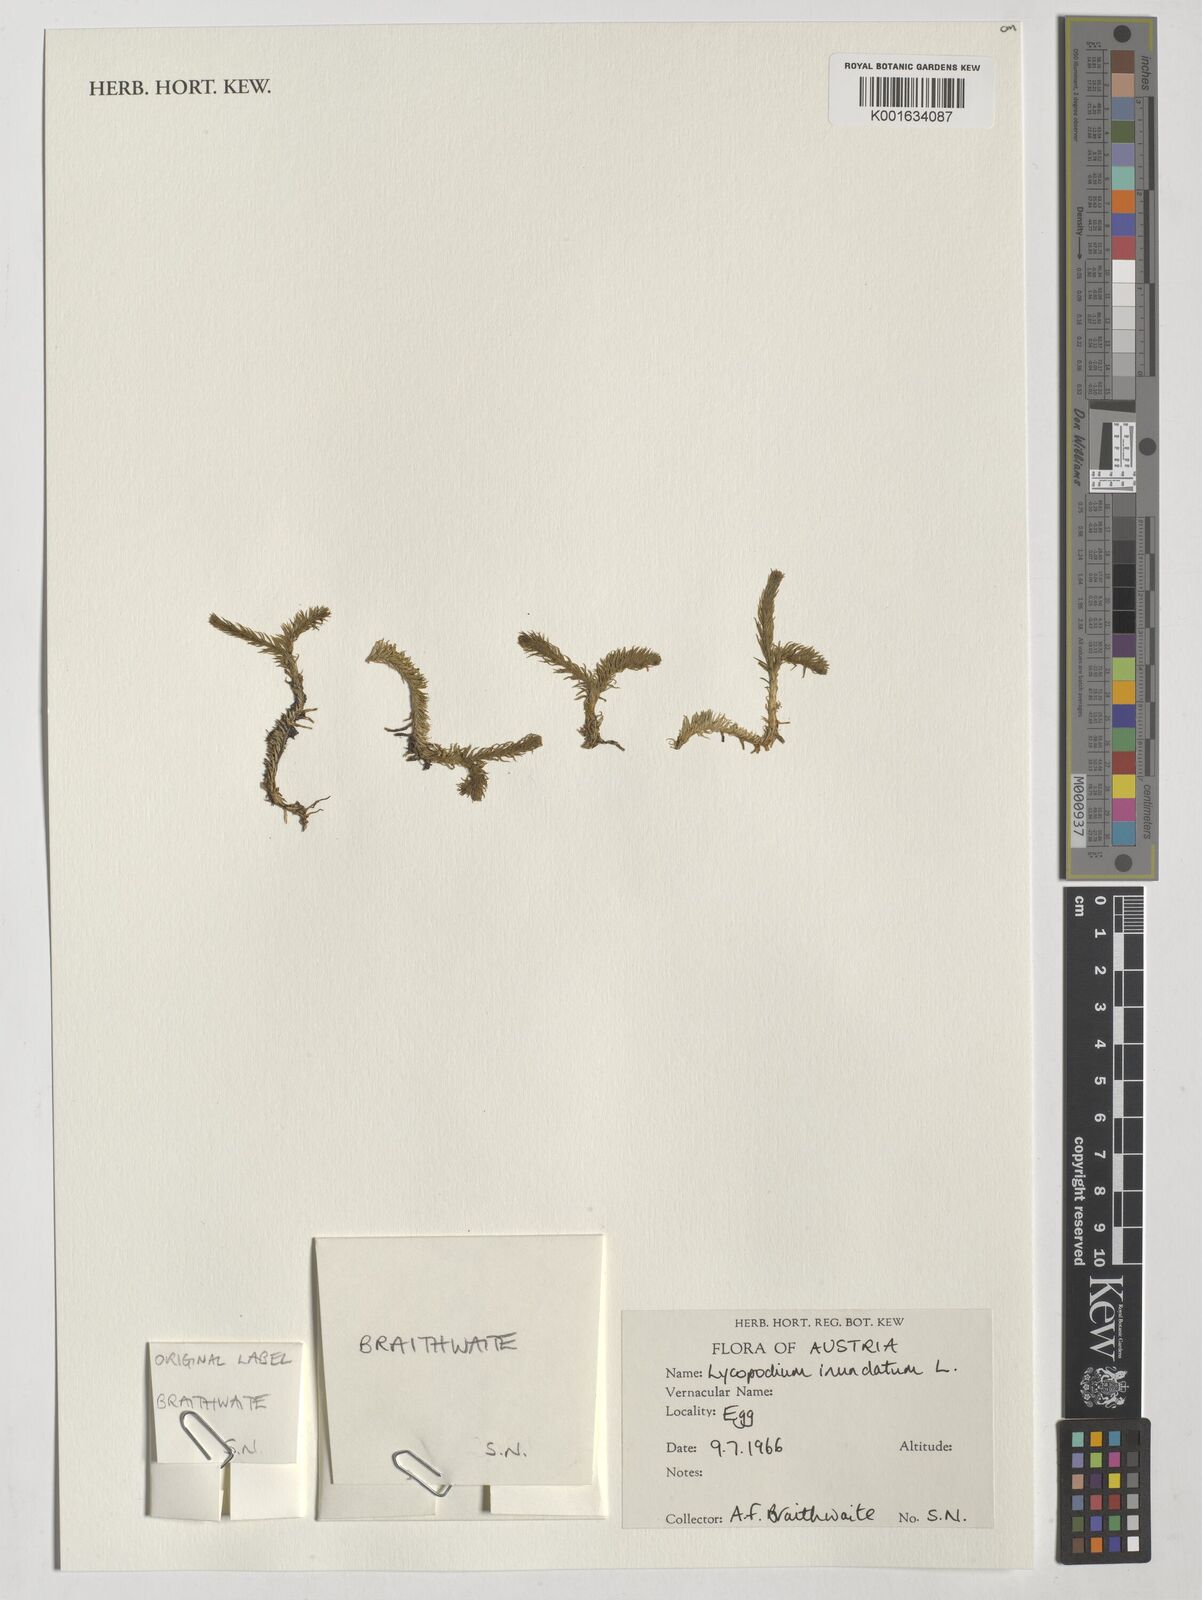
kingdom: Plantae
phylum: Tracheophyta
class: Lycopodiopsida
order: Lycopodiales
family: Lycopodiaceae
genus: Lycopodiella
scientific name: Lycopodiella inundata
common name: Marsh clubmoss
